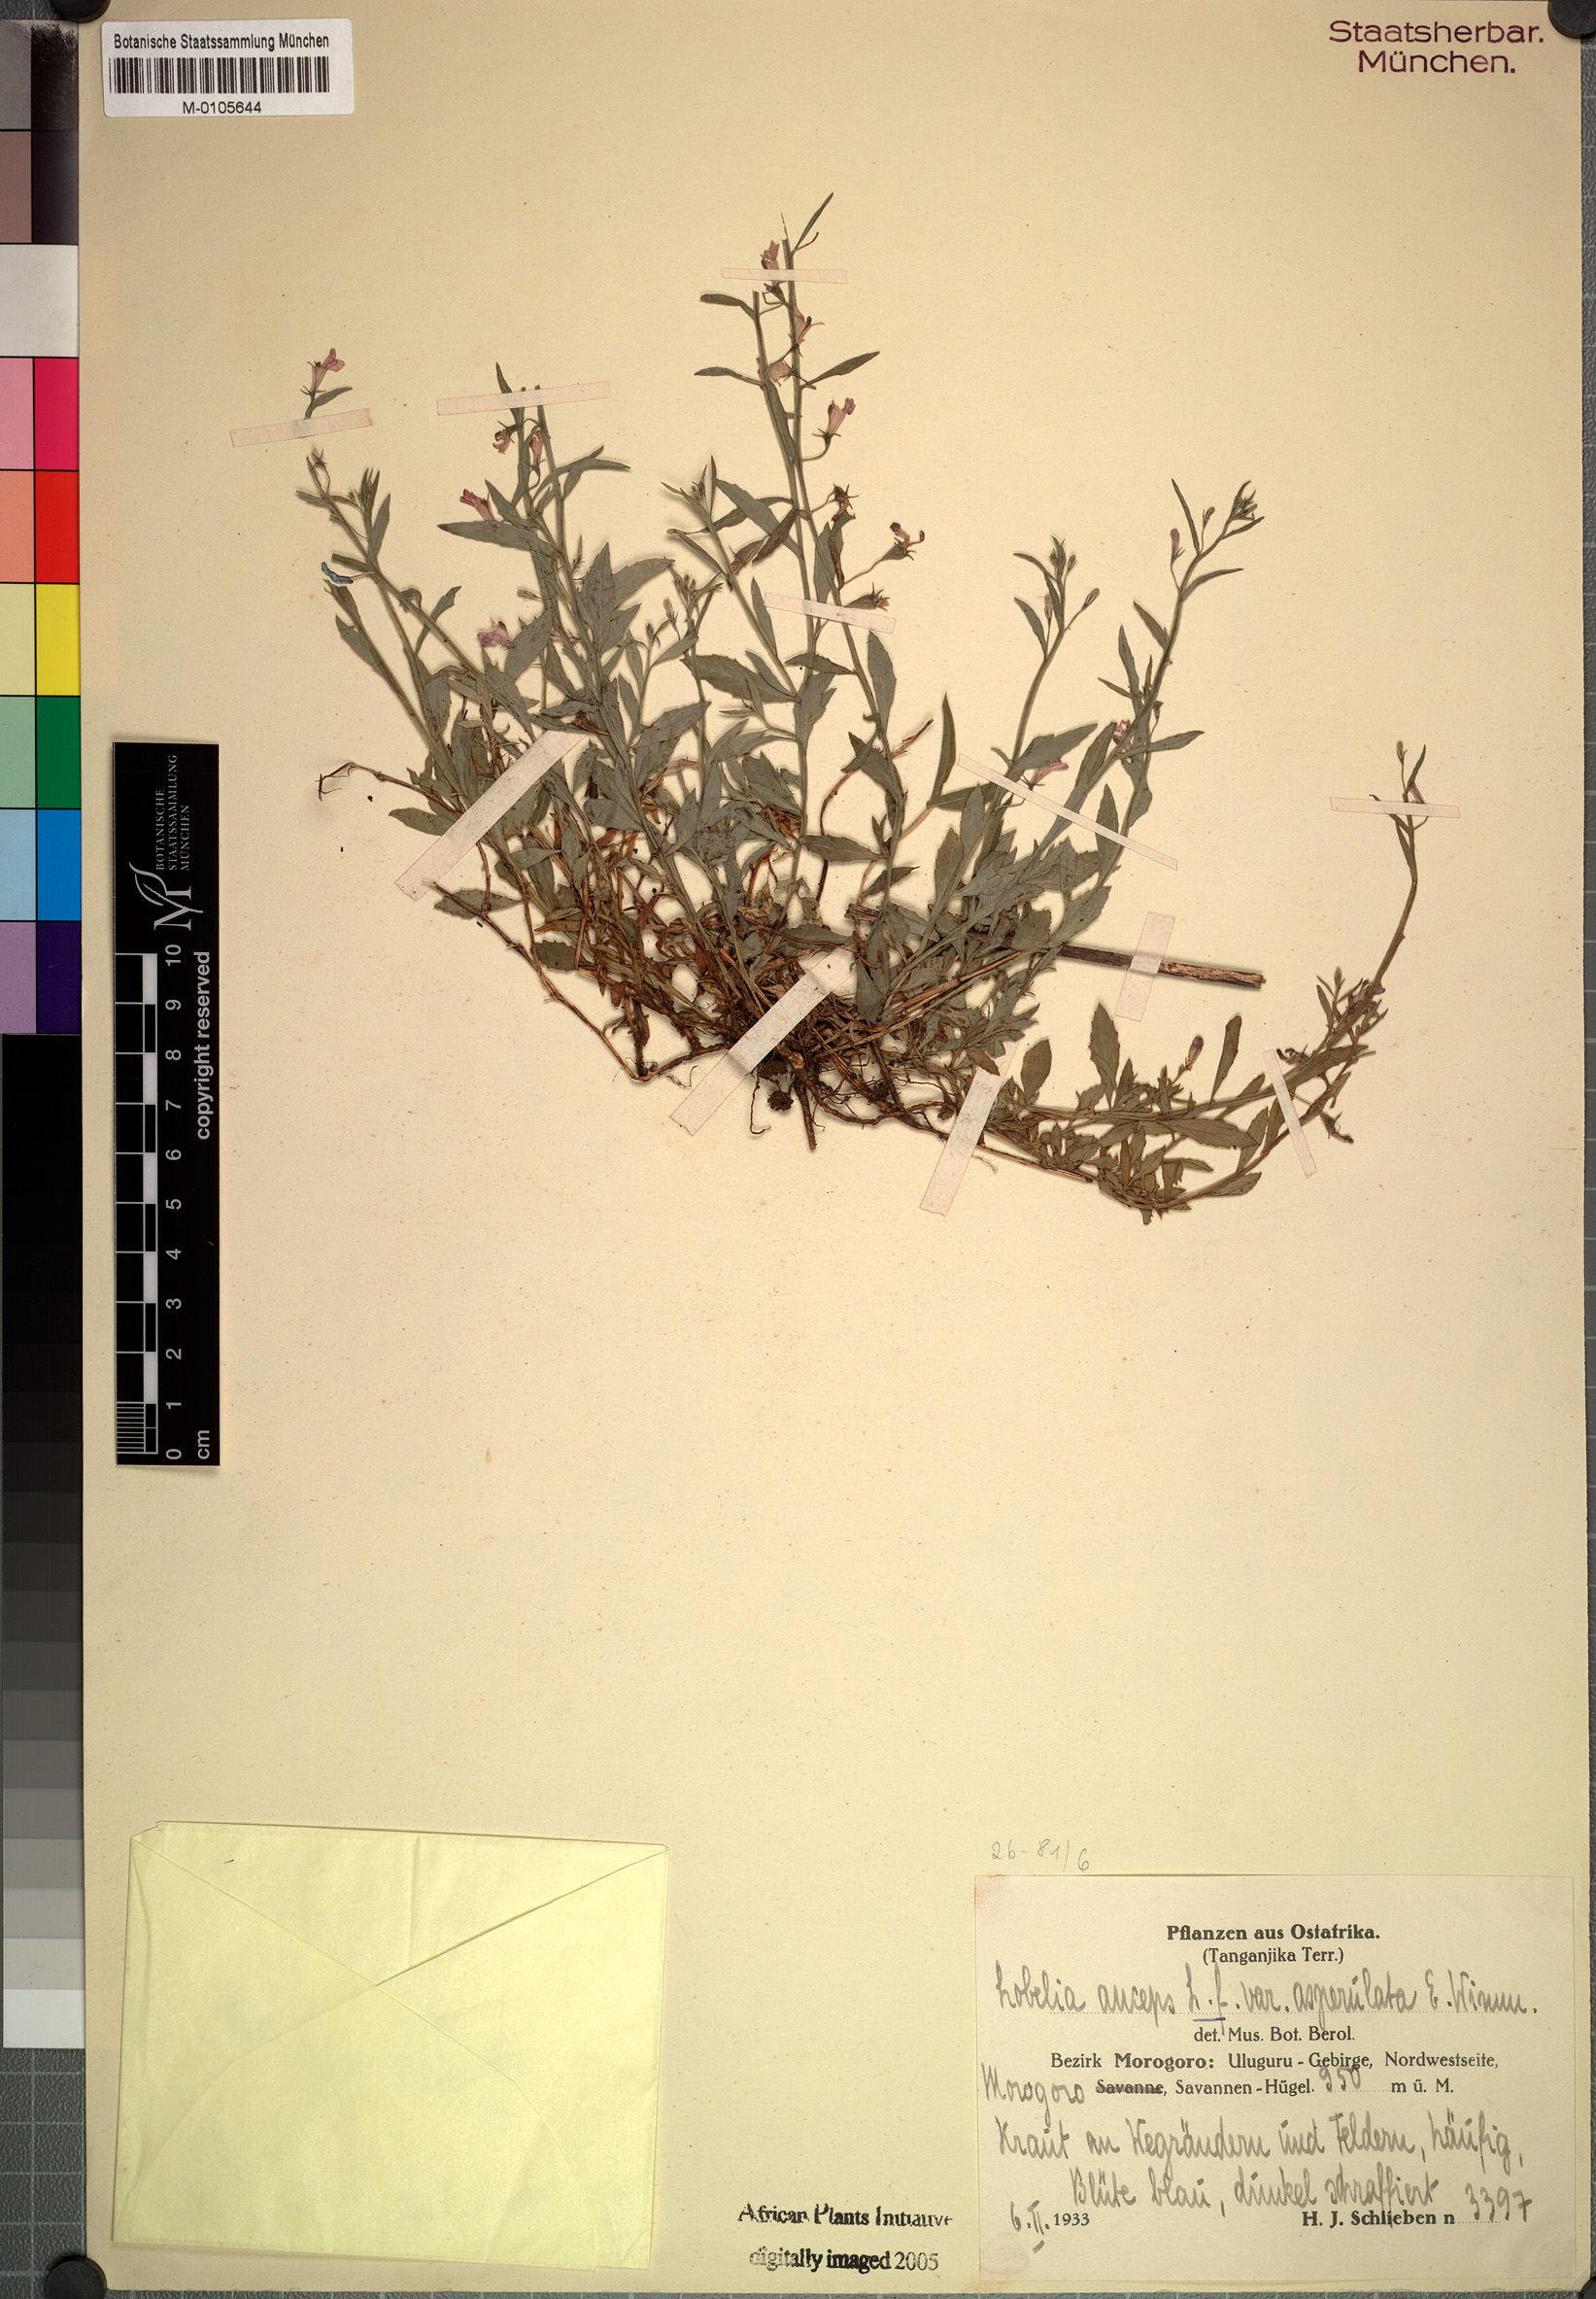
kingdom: Plantae
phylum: Tracheophyta
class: Magnoliopsida
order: Asterales
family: Campanulaceae
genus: Lobelia
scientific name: Lobelia fervens
